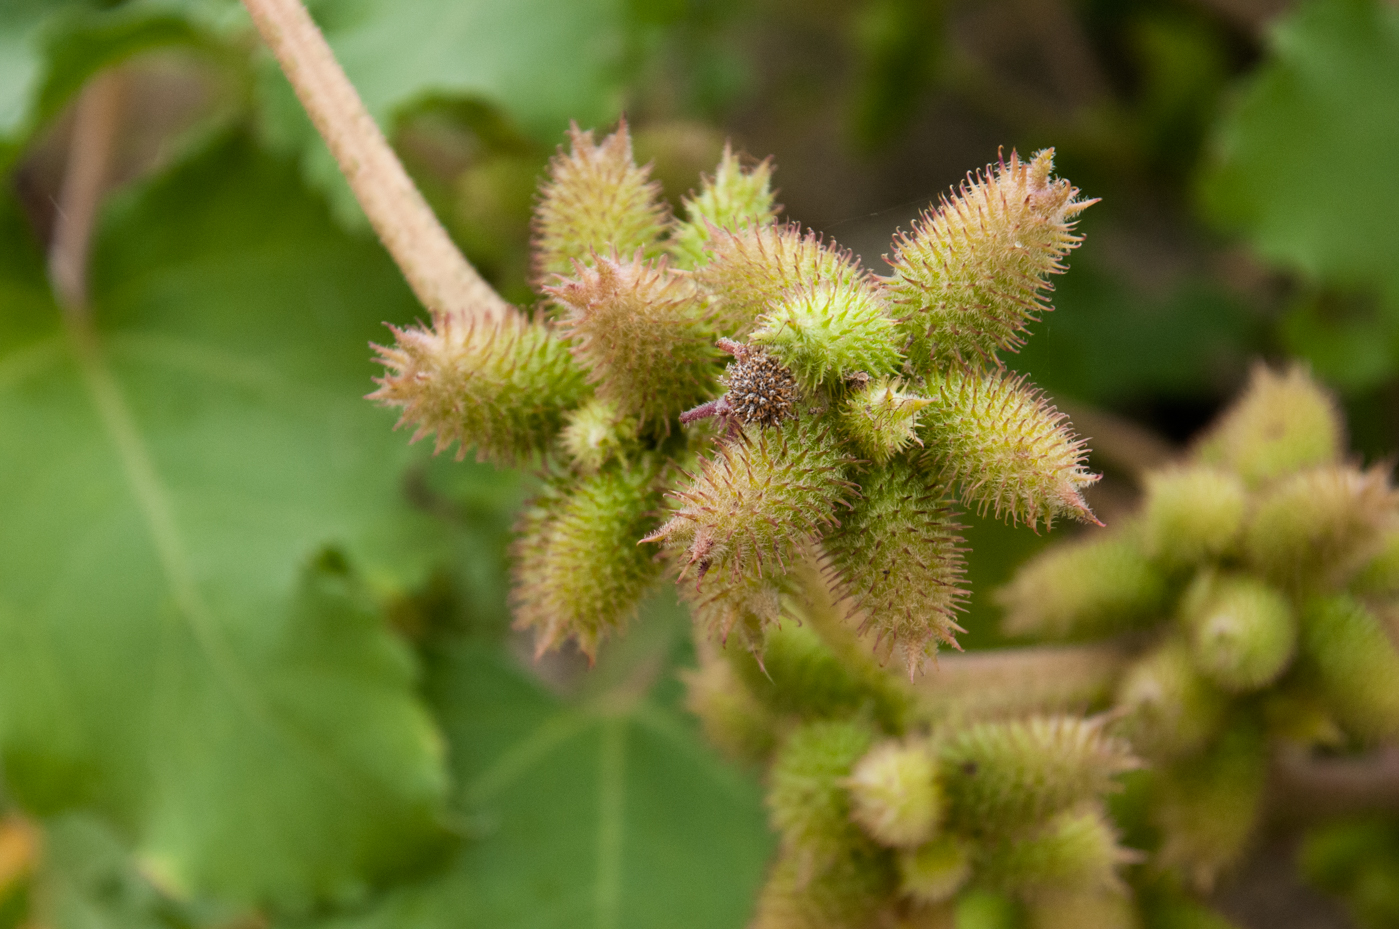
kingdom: Plantae
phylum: Tracheophyta
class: Magnoliopsida
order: Asterales
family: Asteraceae
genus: Xanthium
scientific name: Xanthium orientale
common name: Californian burr
